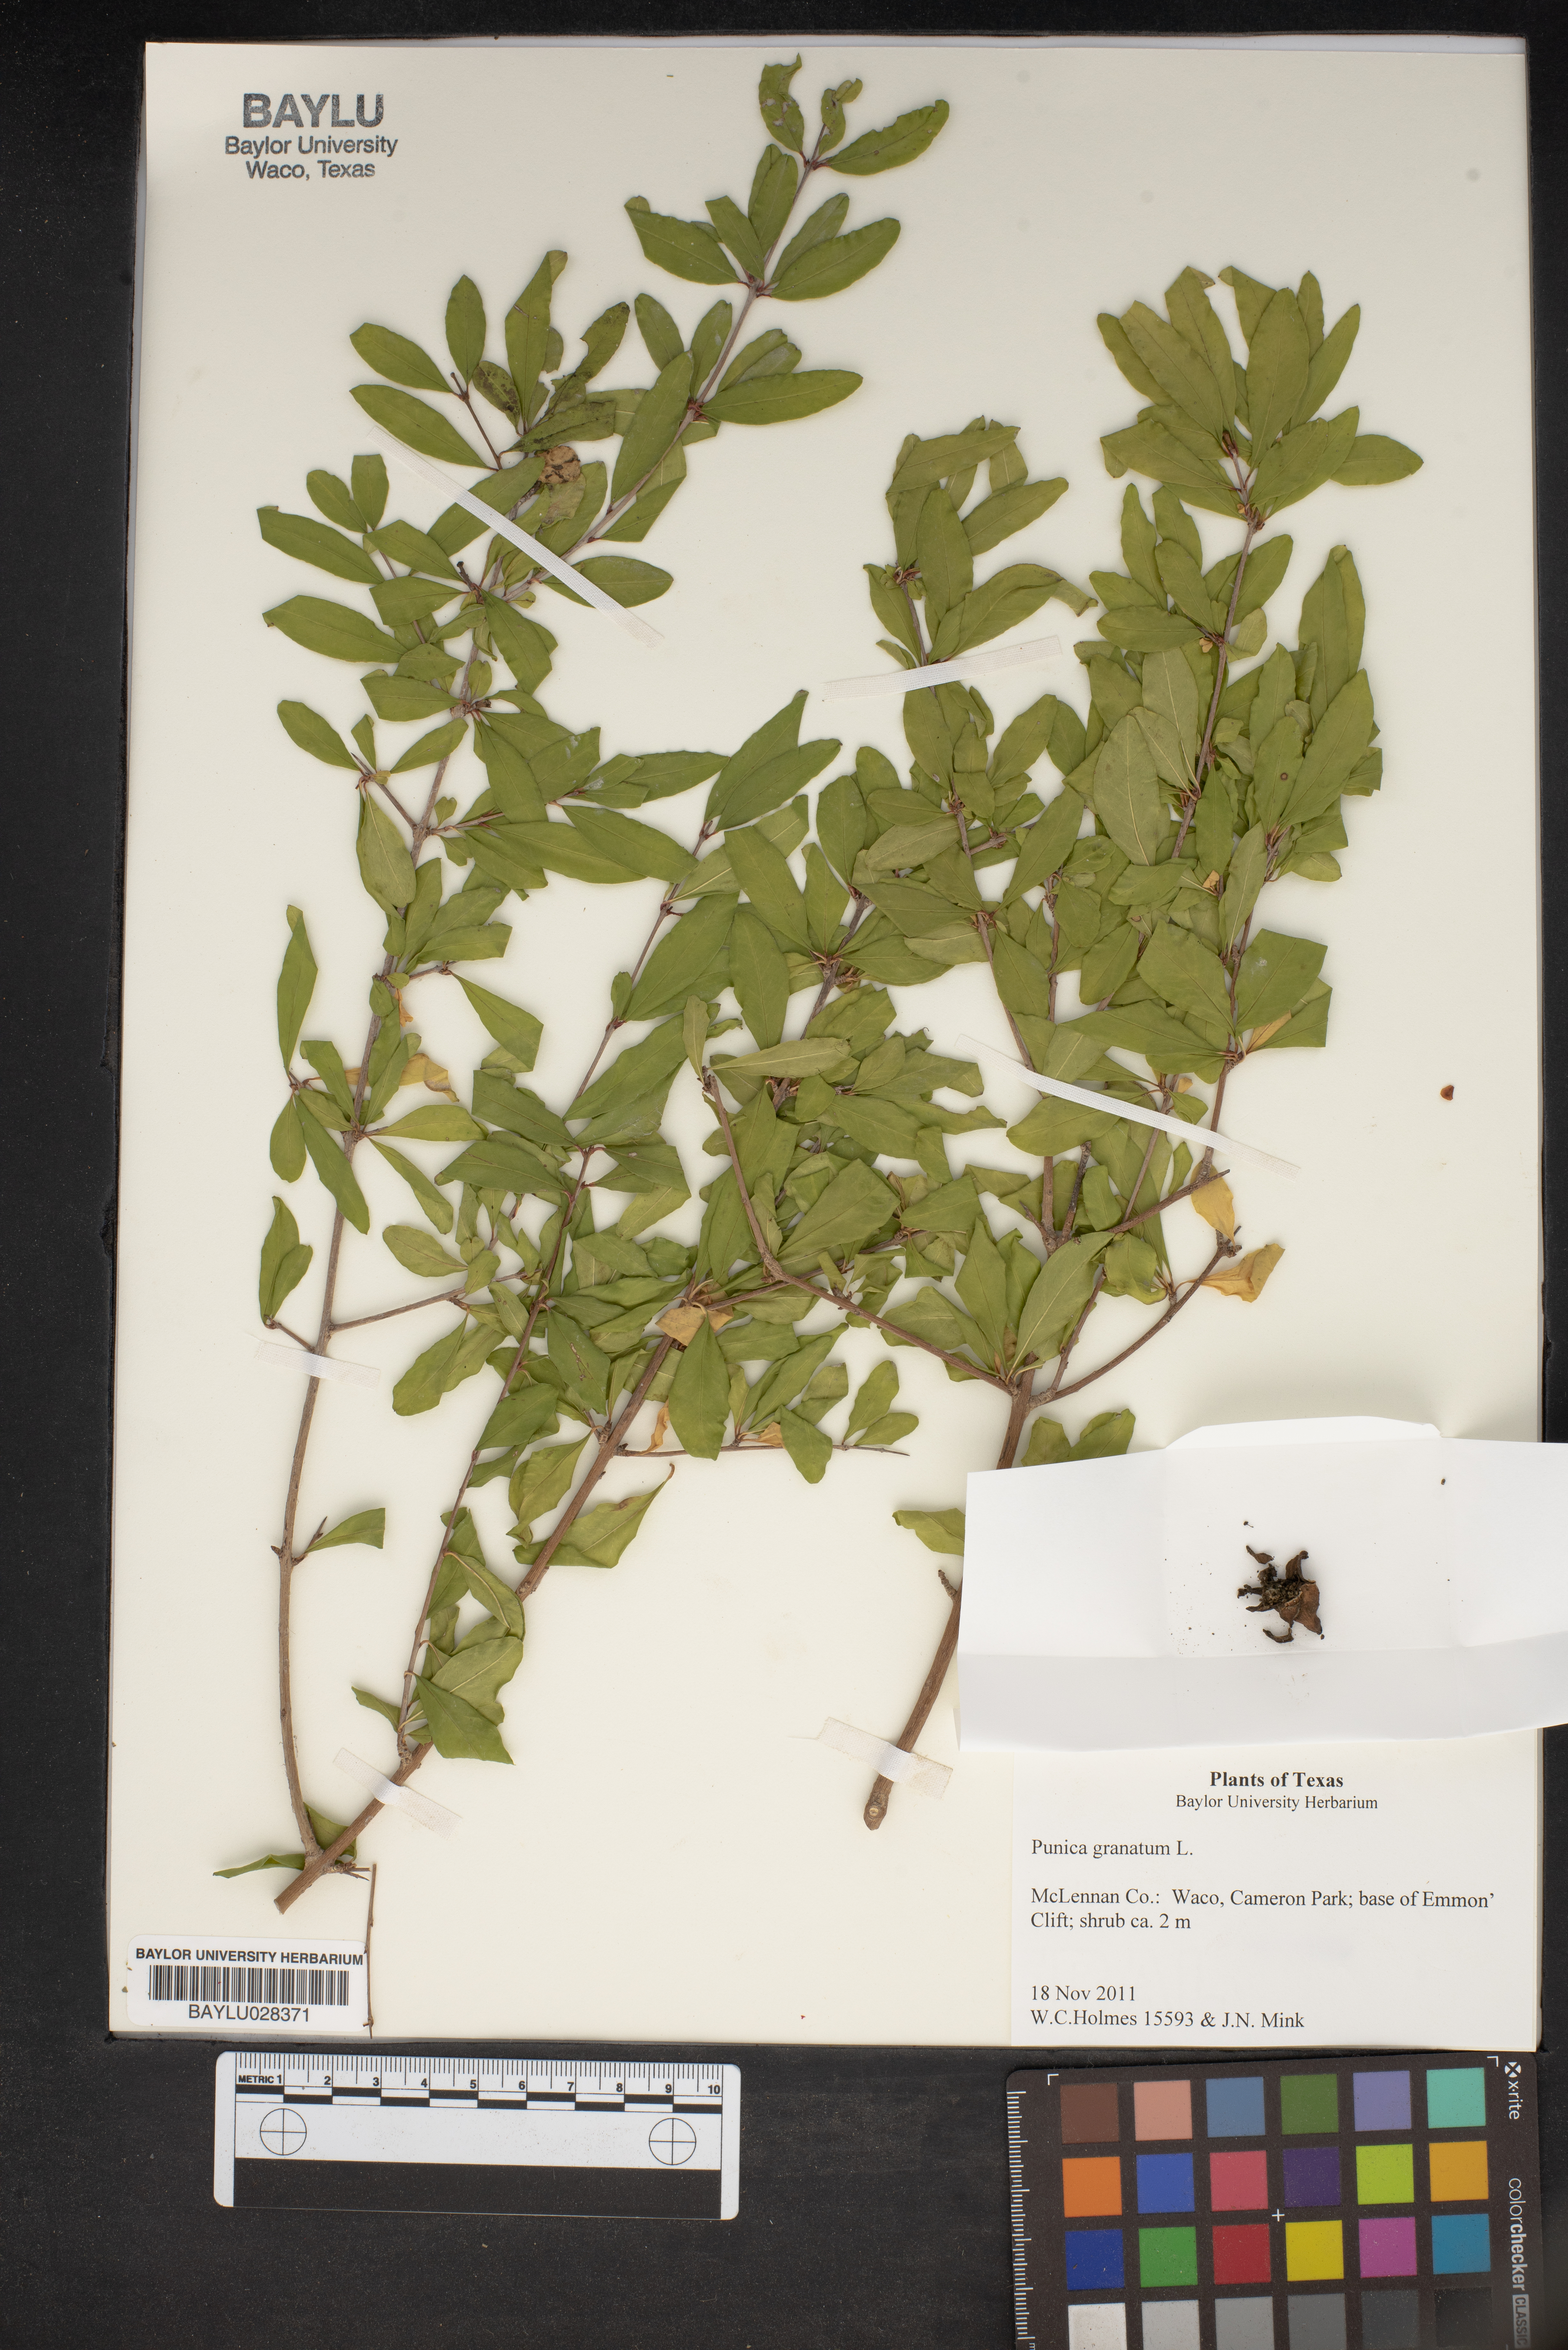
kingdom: Plantae
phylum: Tracheophyta
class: Magnoliopsida
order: Myrtales
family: Lythraceae
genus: Punica
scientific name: Punica granatum
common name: Pomegranate
